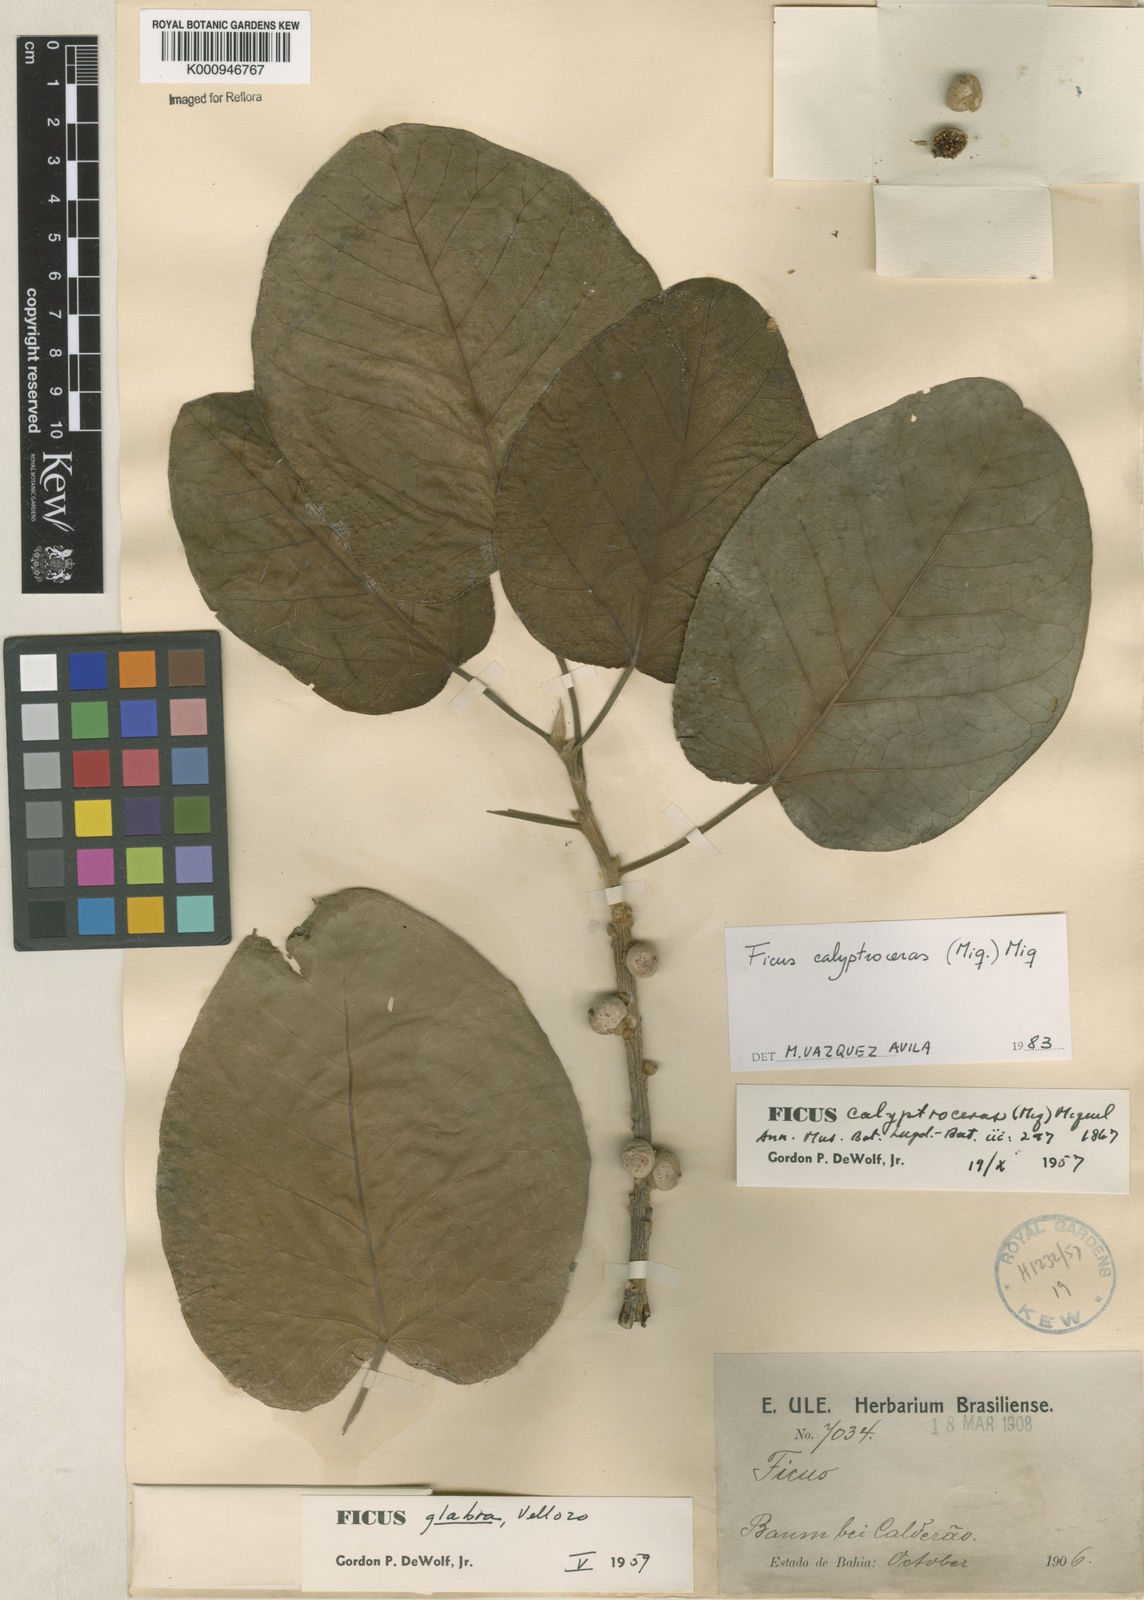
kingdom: Plantae
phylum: Tracheophyta
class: Magnoliopsida
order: Rosales
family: Moraceae
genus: Ficus
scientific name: Ficus calyptroceras
